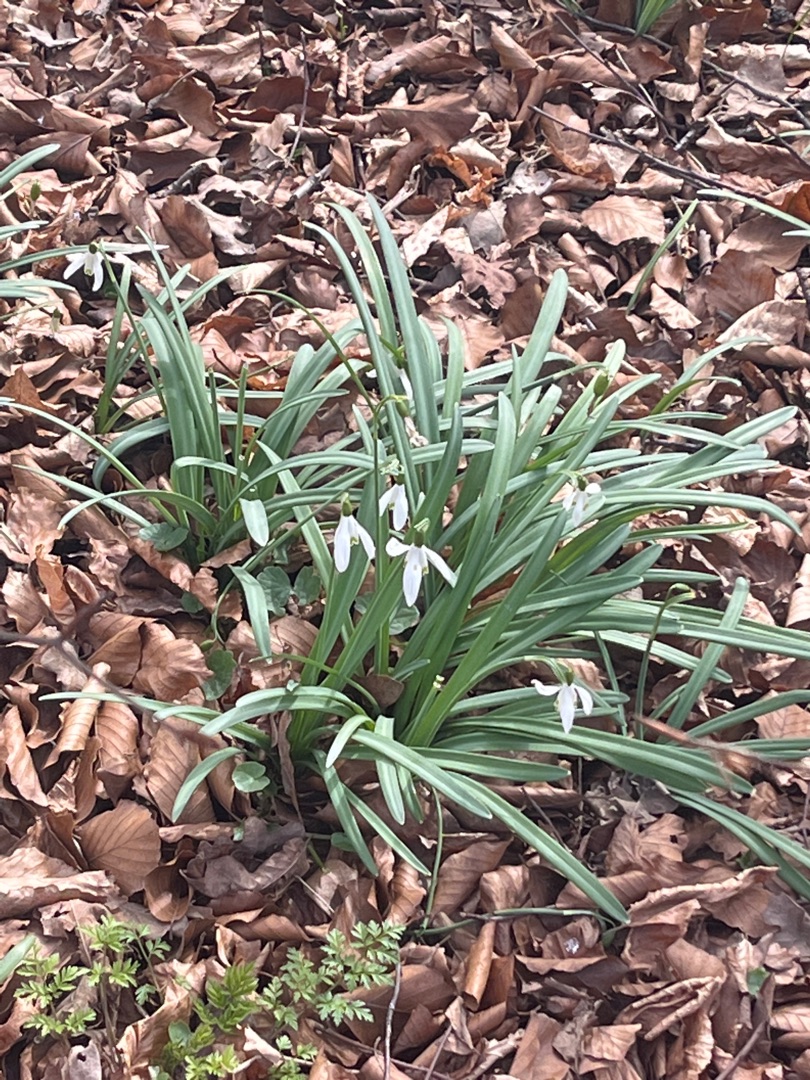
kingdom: Plantae
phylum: Tracheophyta
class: Liliopsida
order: Asparagales
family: Amaryllidaceae
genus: Galanthus
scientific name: Galanthus nivalis
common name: Vintergæk
